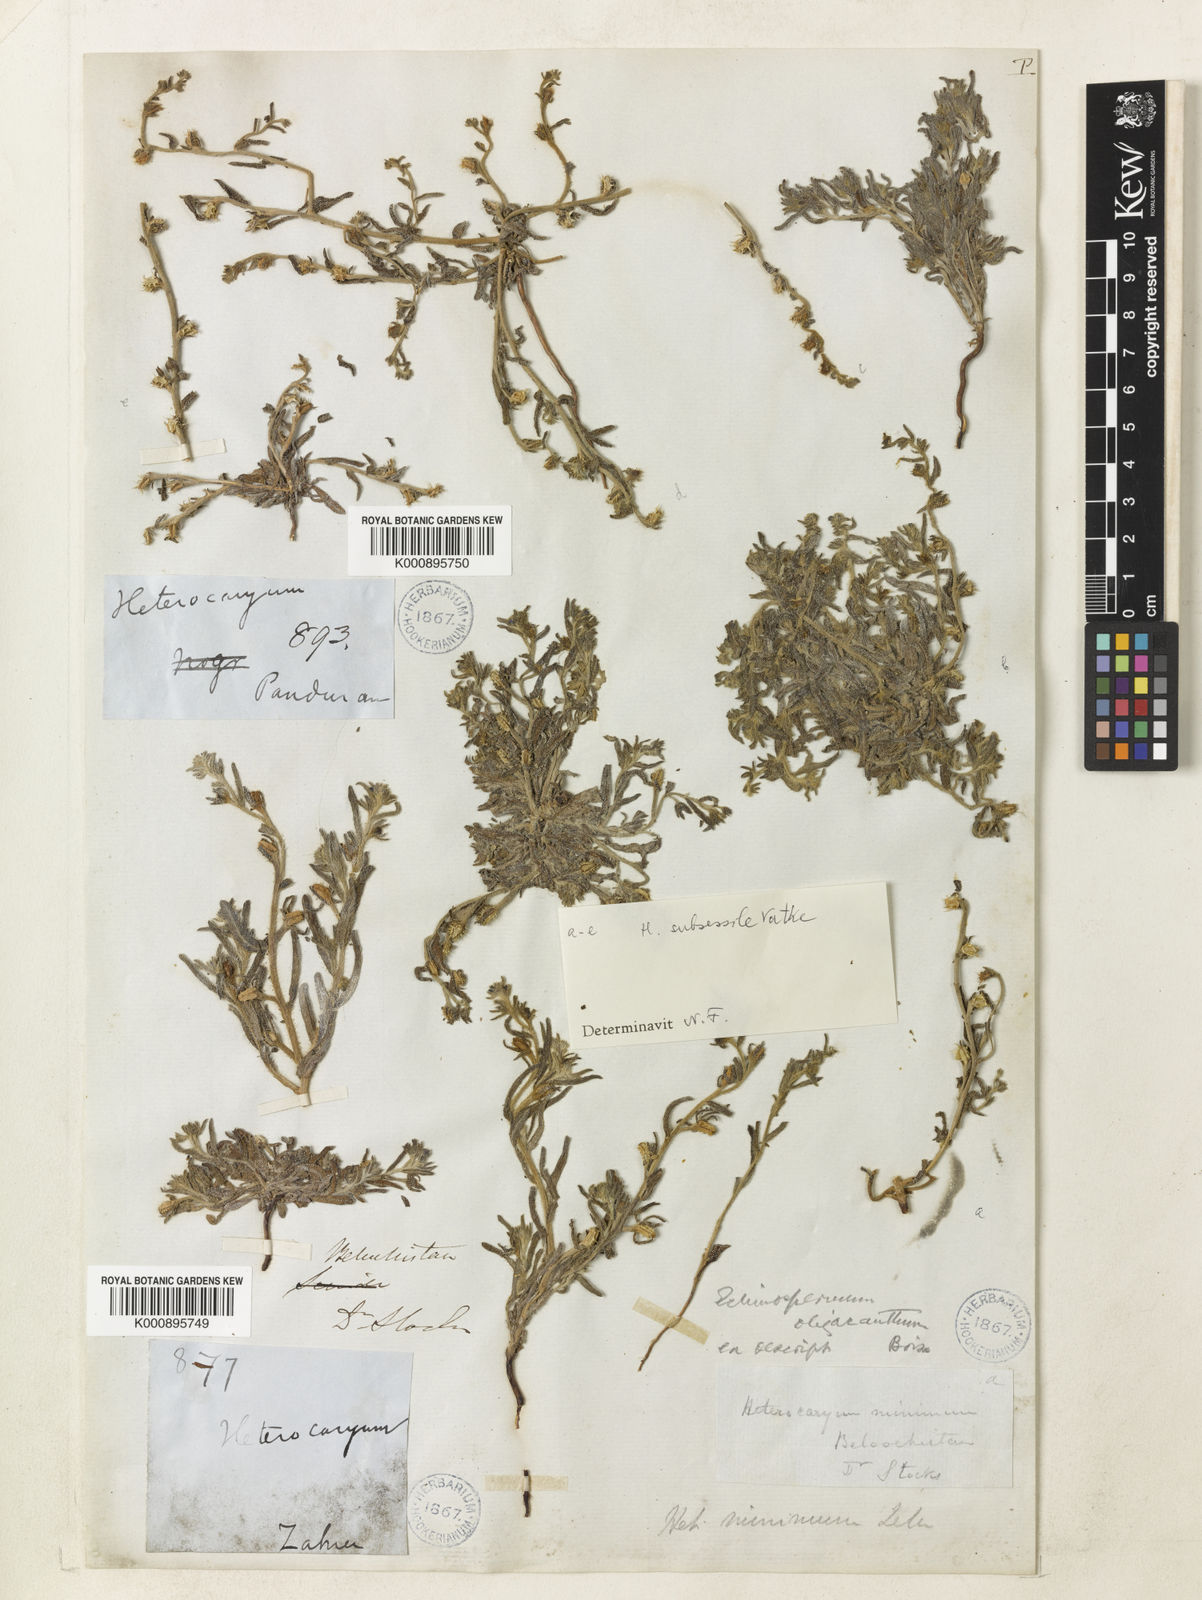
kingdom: Plantae
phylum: Tracheophyta
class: Magnoliopsida
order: Boraginales
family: Boraginaceae
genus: Lappula
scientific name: Lappula
